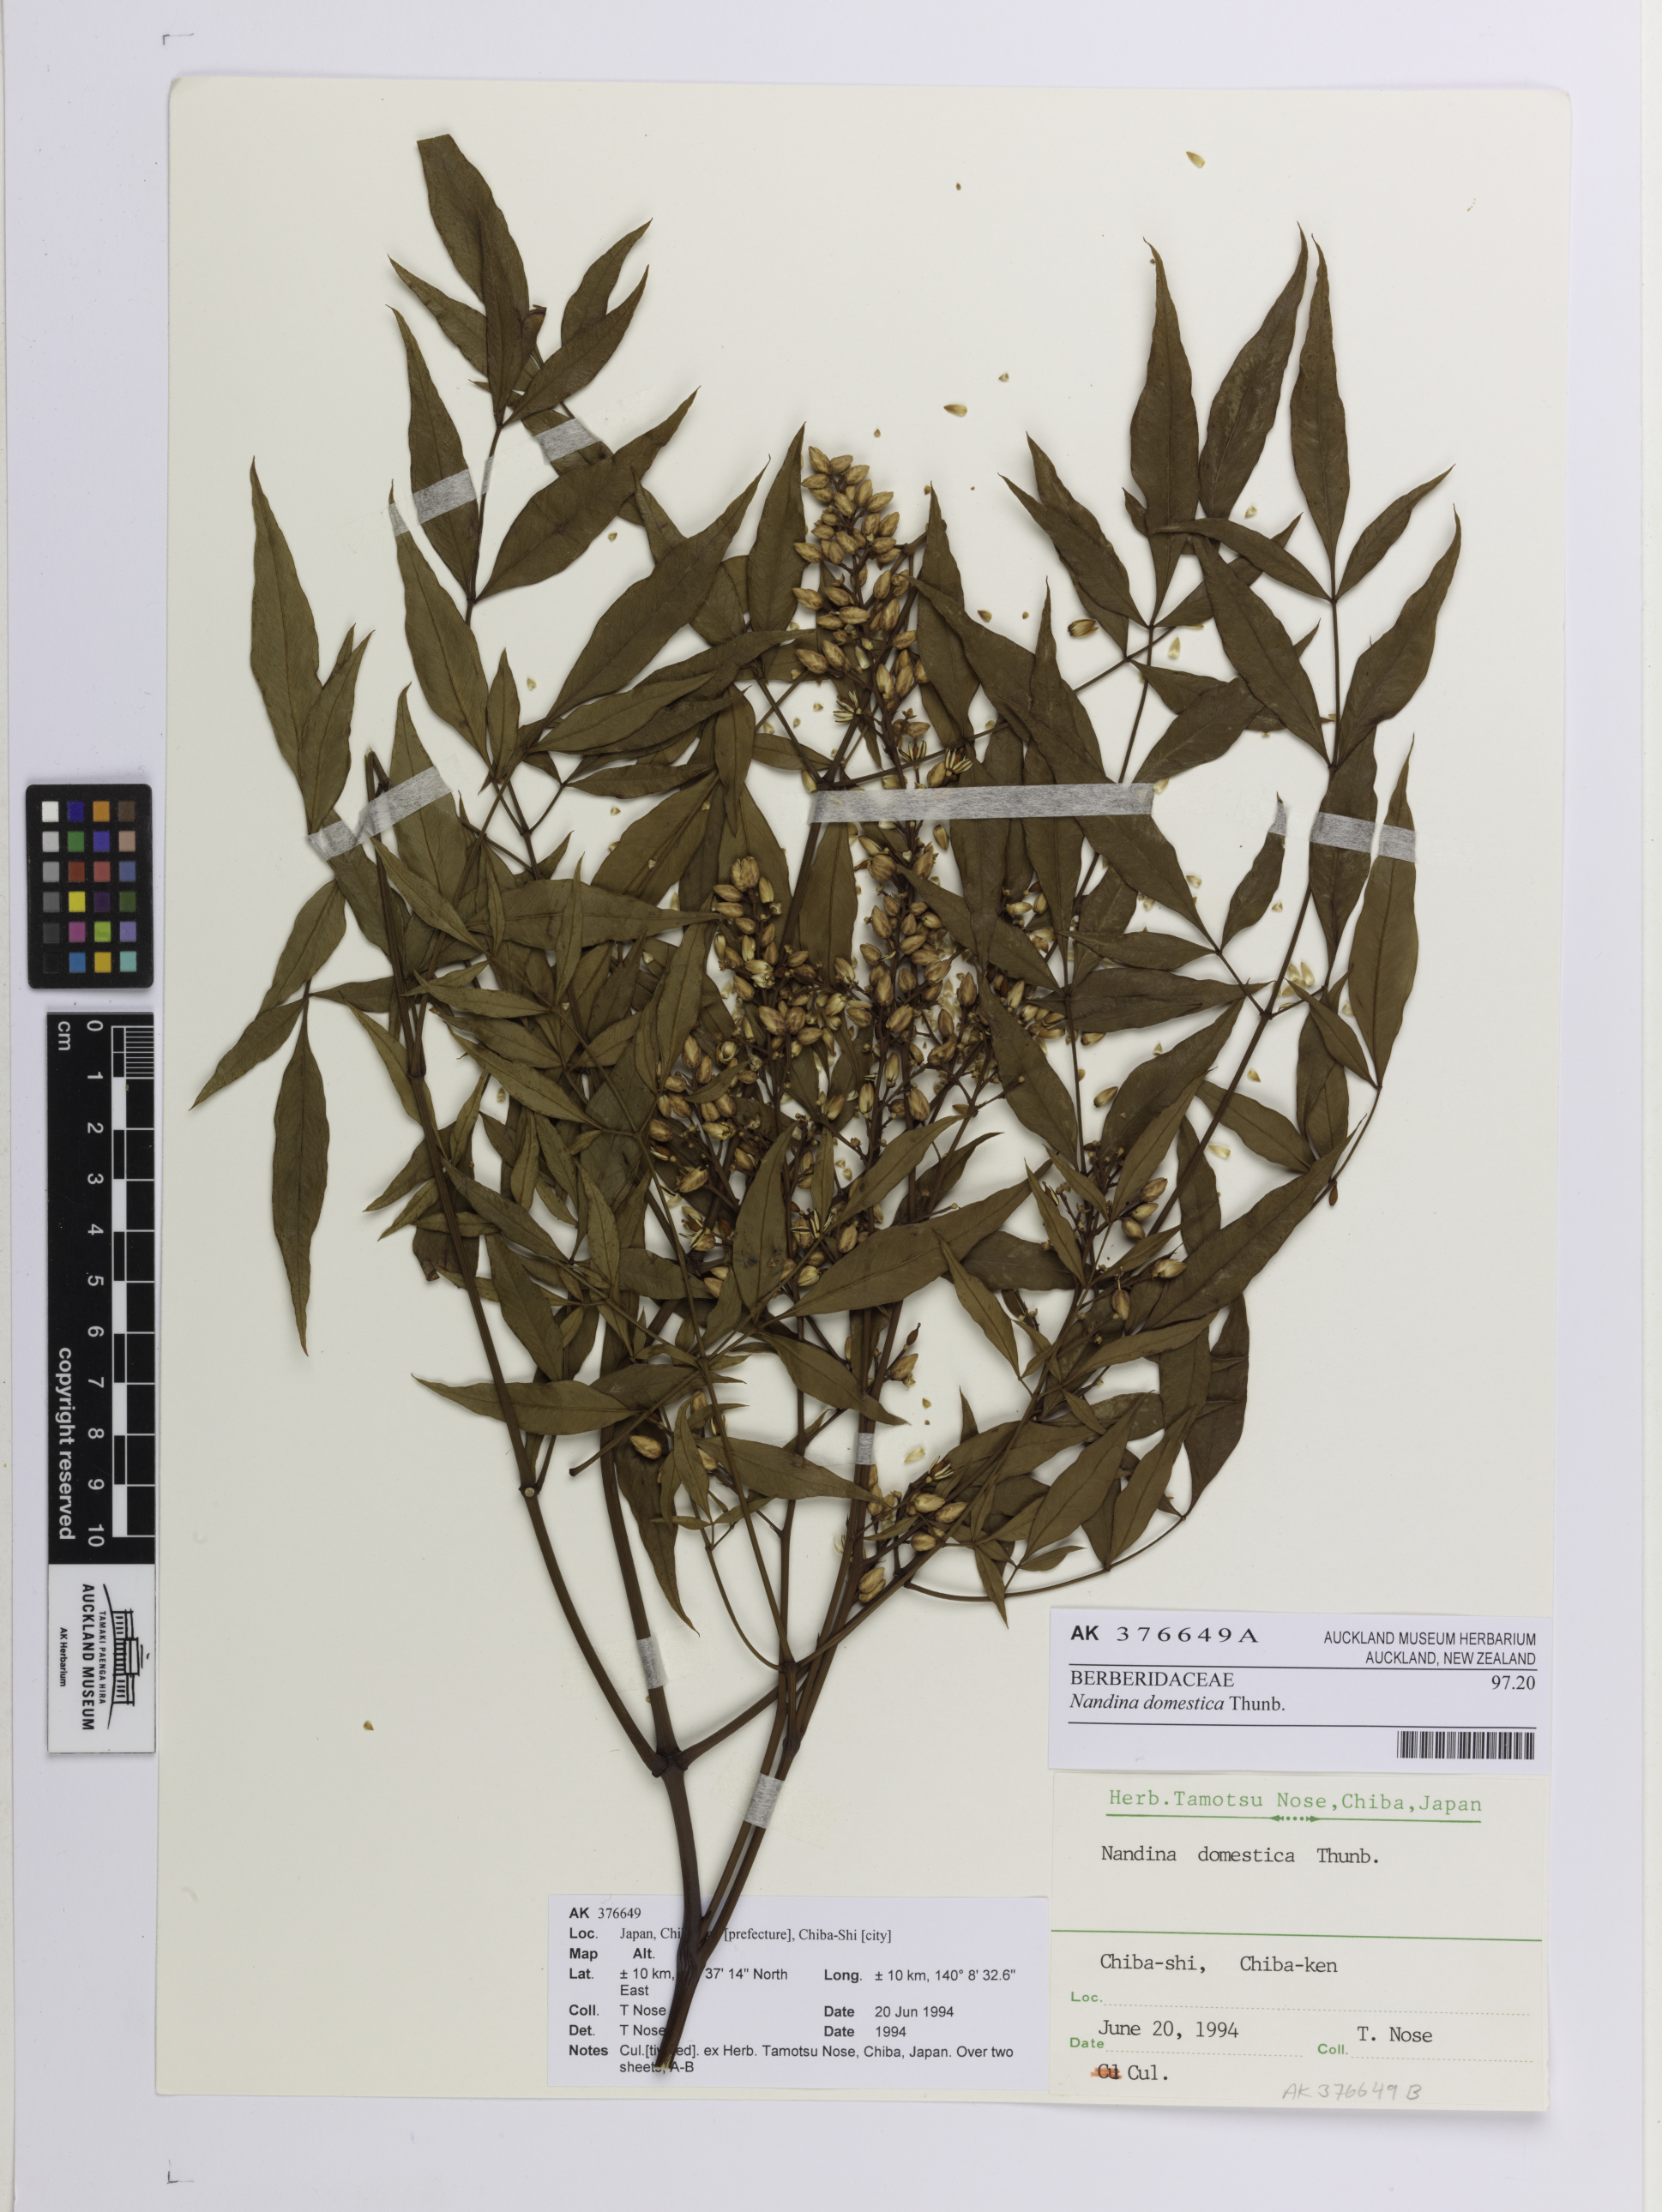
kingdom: Plantae
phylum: Tracheophyta
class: Magnoliopsida
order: Ranunculales
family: Berberidaceae
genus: Nandina
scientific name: Nandina domestica
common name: Sacred bamboo
